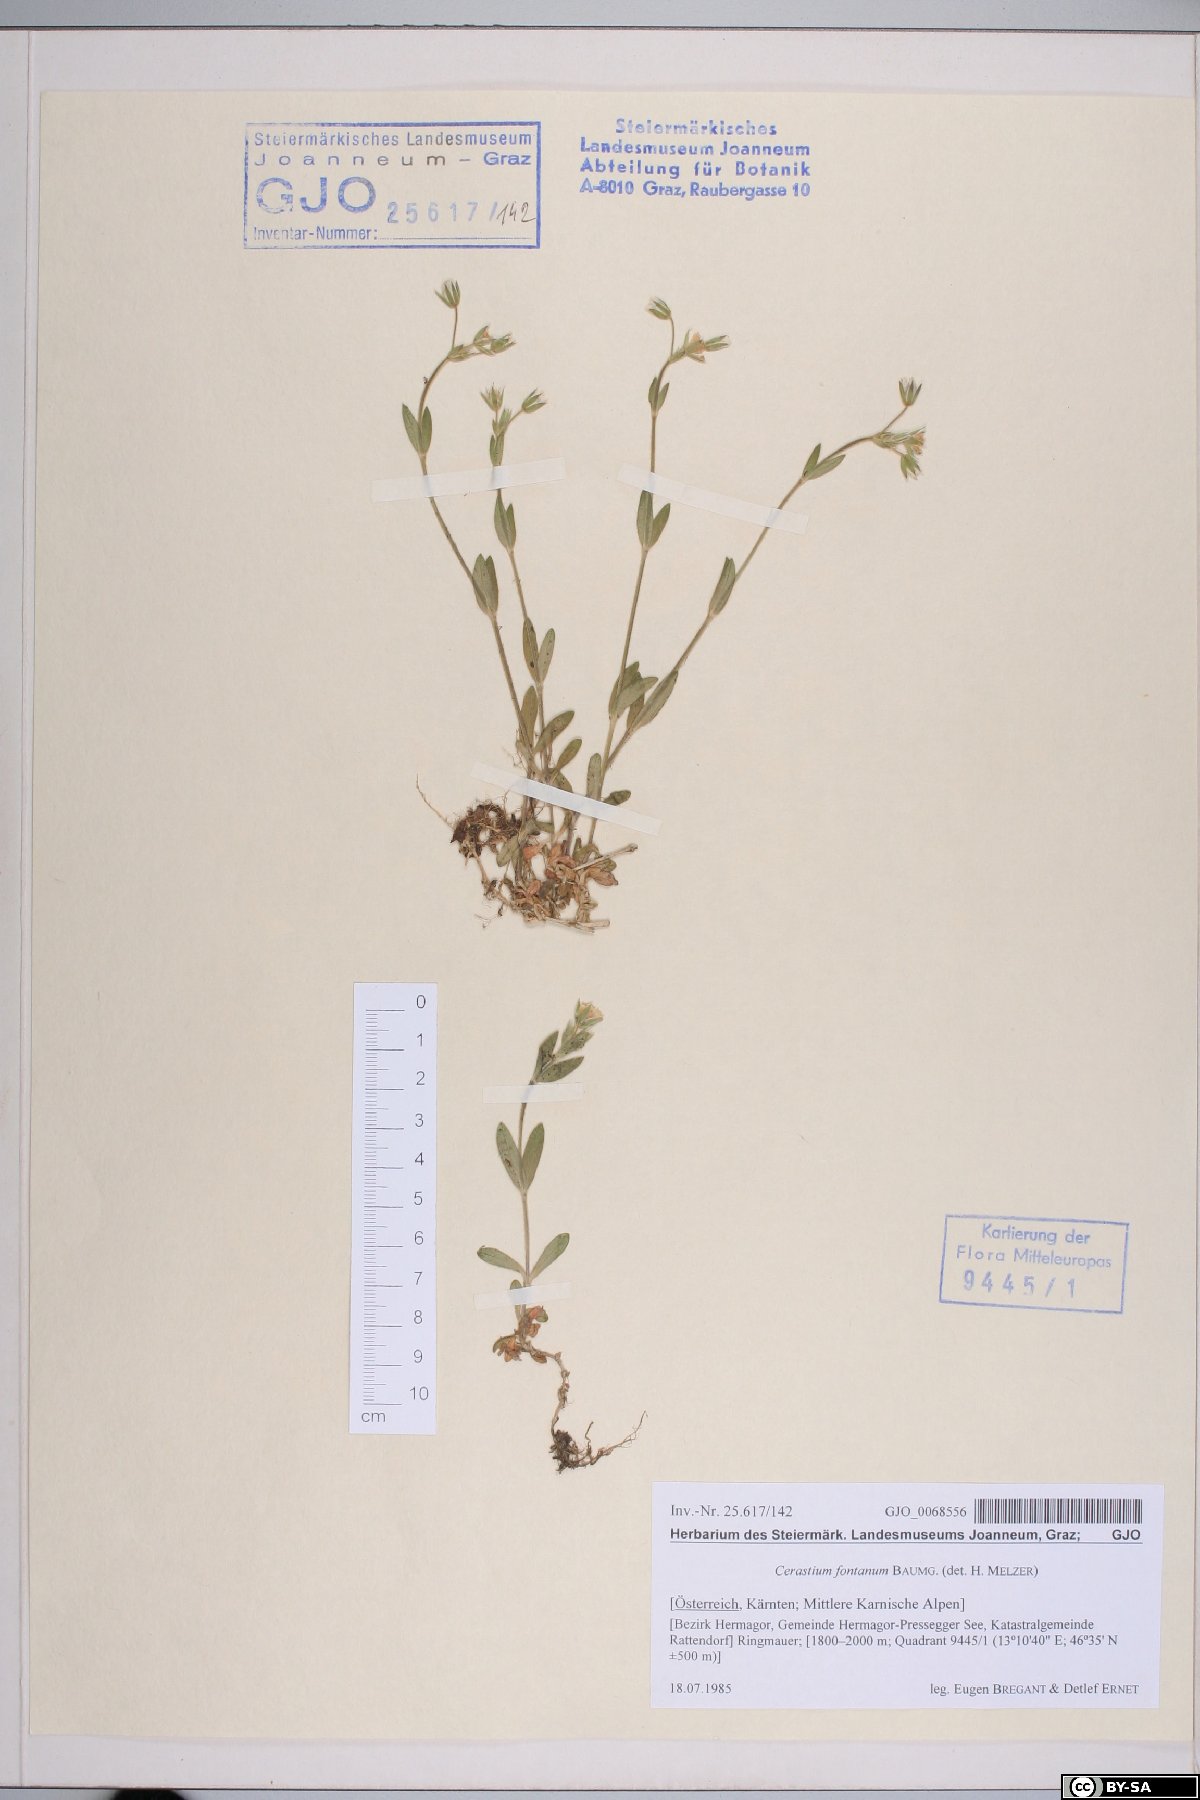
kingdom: Plantae
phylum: Tracheophyta
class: Magnoliopsida
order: Caryophyllales
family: Caryophyllaceae
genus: Cerastium
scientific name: Cerastium fontanum
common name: Common mouse-ear
